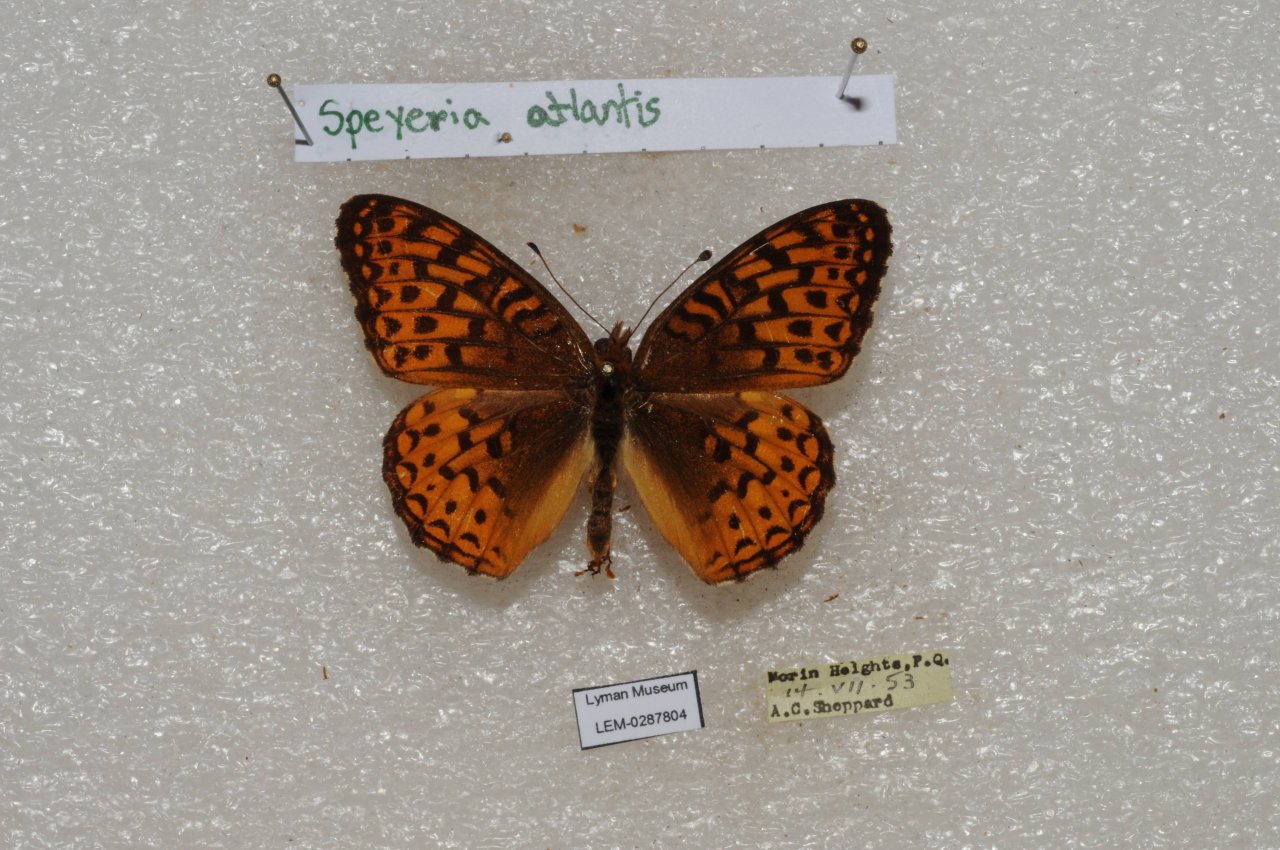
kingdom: Animalia
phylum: Arthropoda
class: Insecta
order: Lepidoptera
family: Nymphalidae
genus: Speyeria
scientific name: Speyeria atlantis
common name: Atlantis Fritillary
